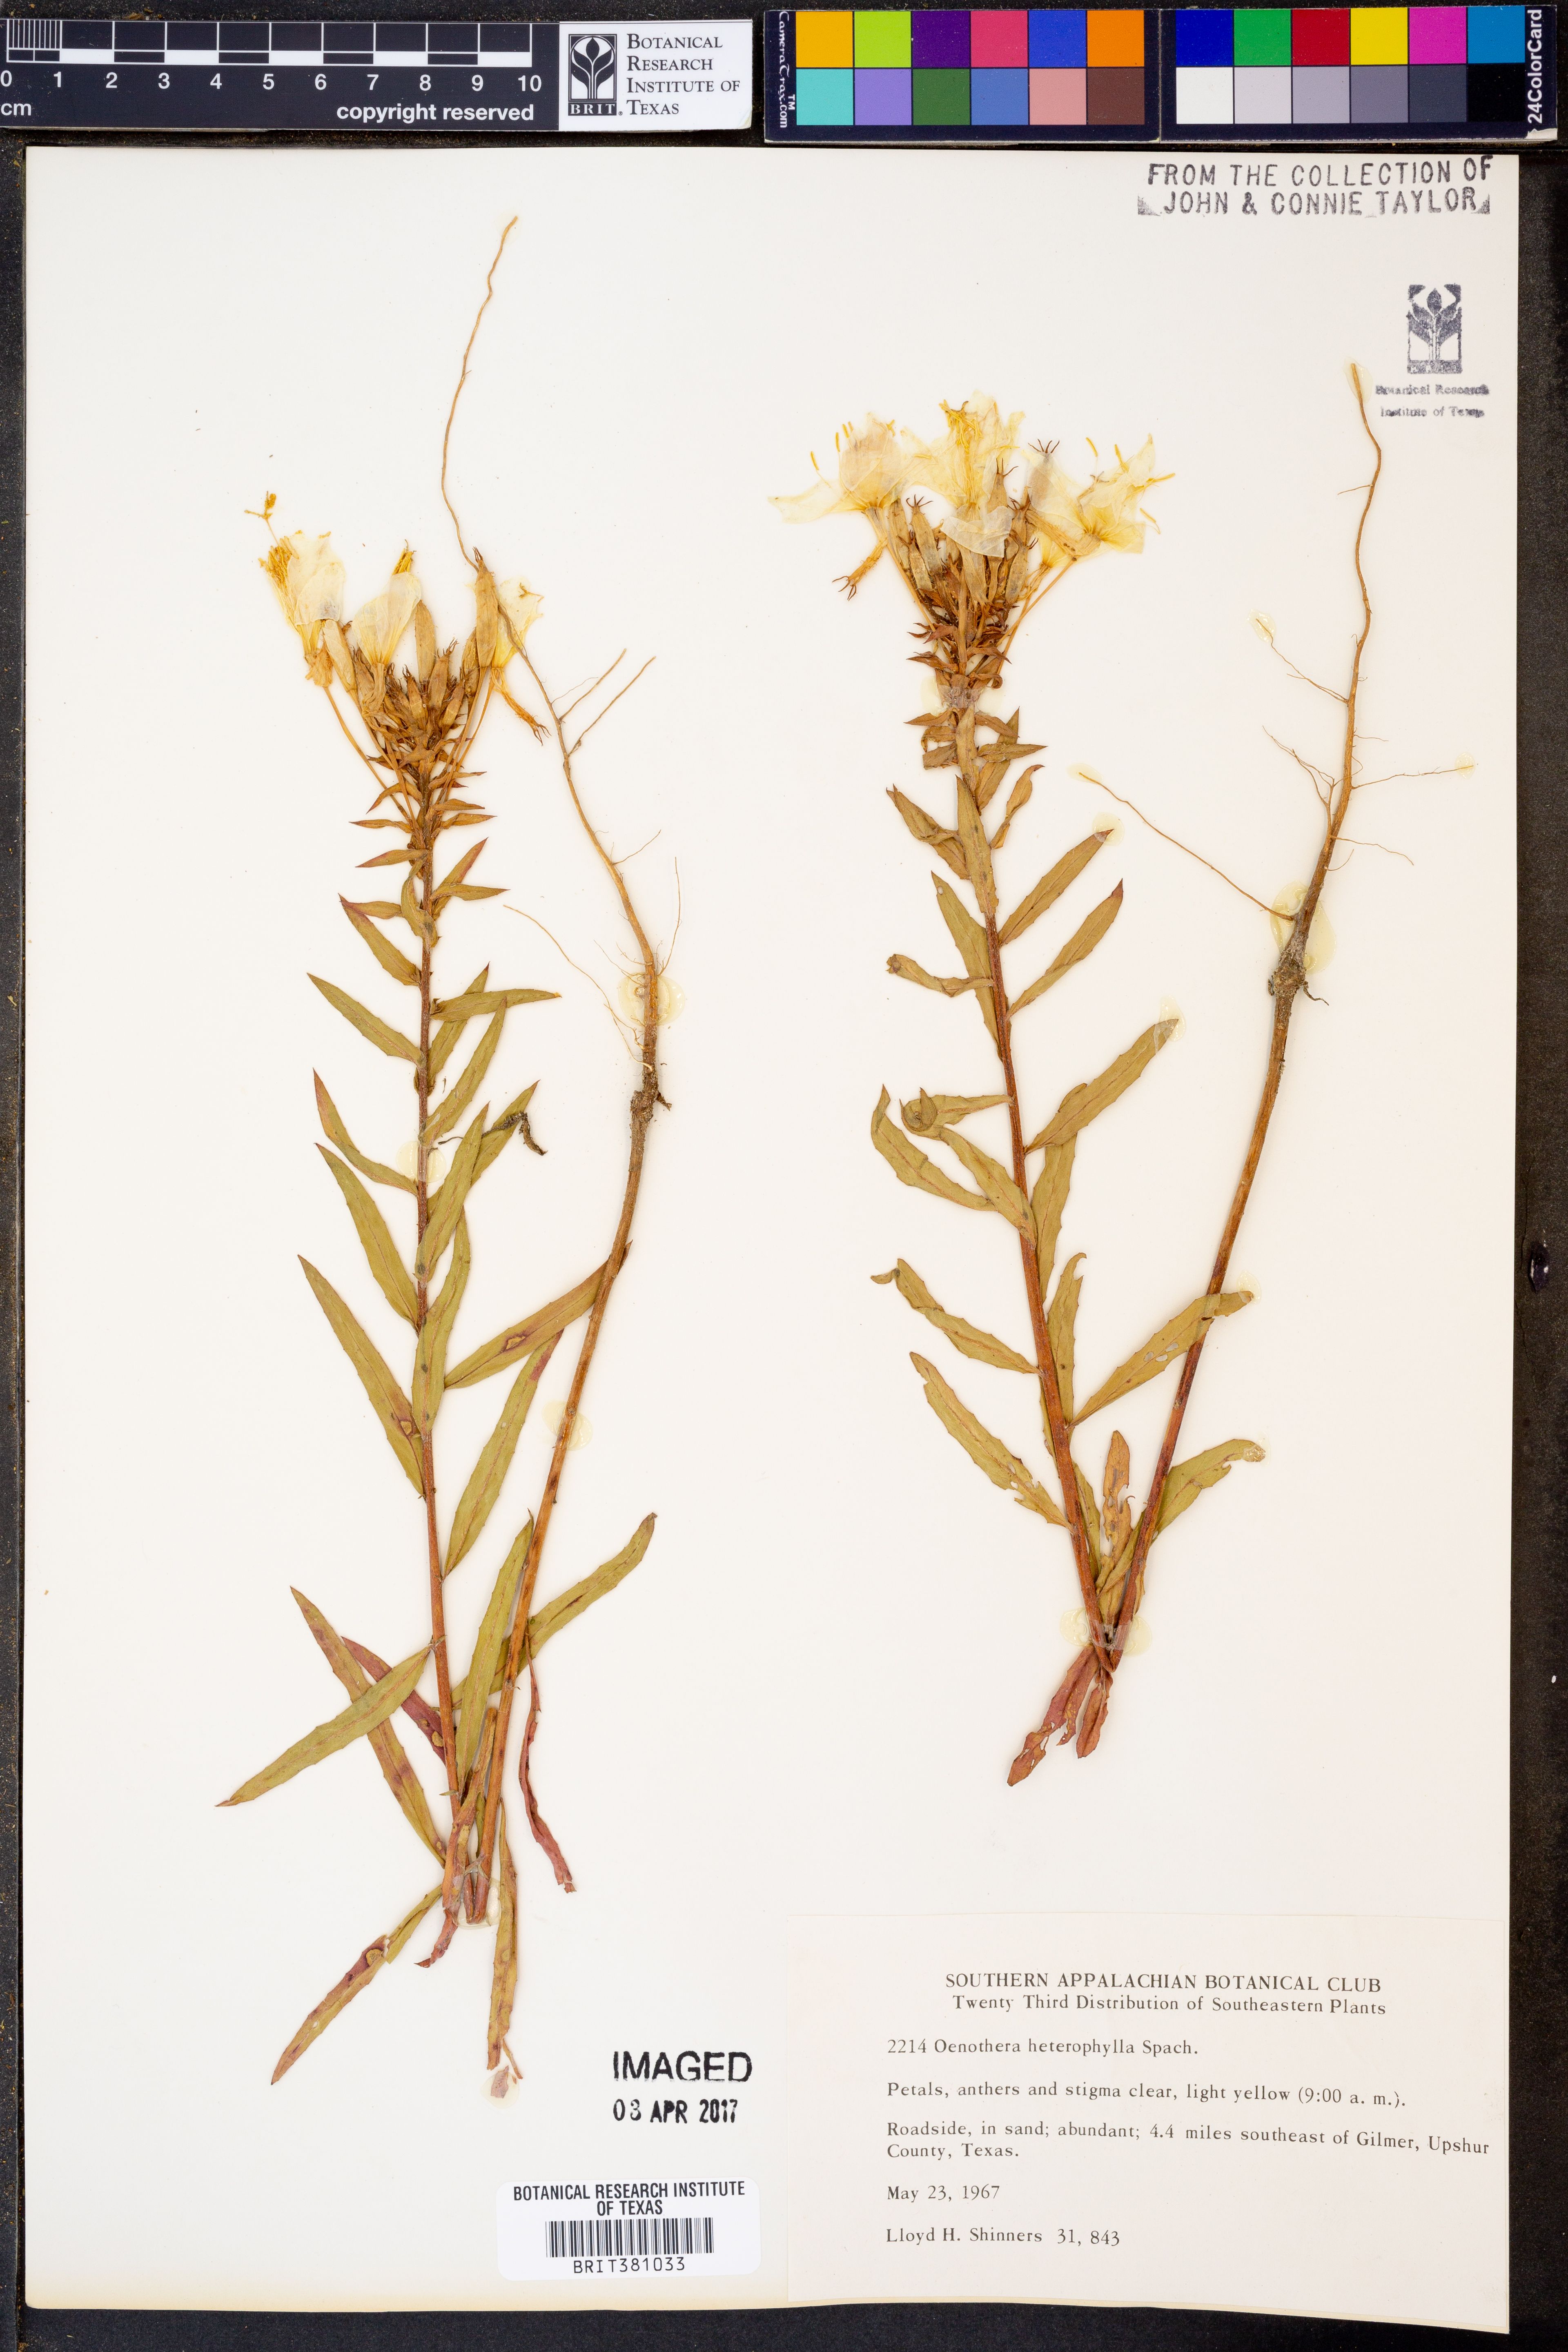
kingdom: Plantae
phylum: Tracheophyta
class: Magnoliopsida
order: Myrtales
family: Onagraceae
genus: Camissonia
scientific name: Camissonia dentata
